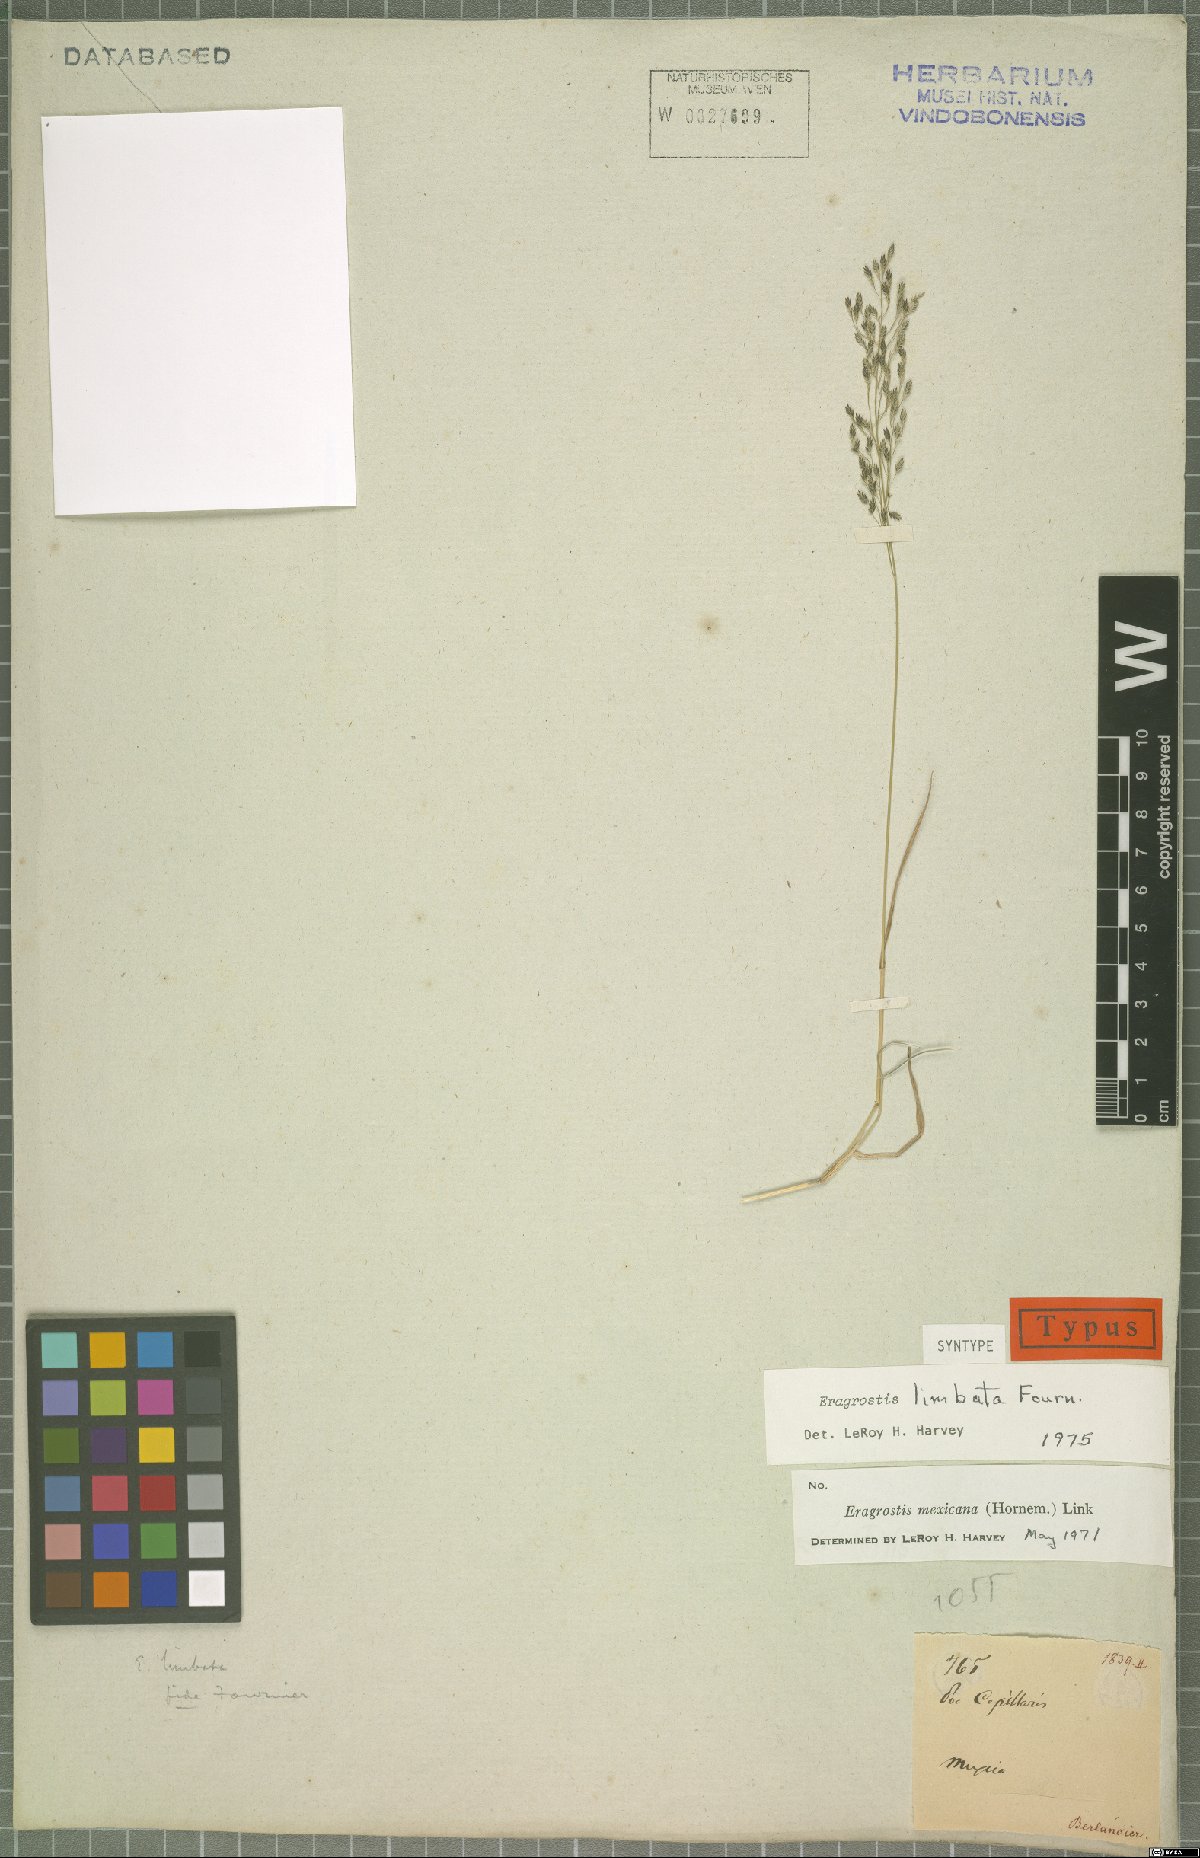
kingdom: Plantae
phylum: Tracheophyta
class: Liliopsida
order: Poales
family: Poaceae
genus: Eragrostis
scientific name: Eragrostis mexicana
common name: Mexican love grass
